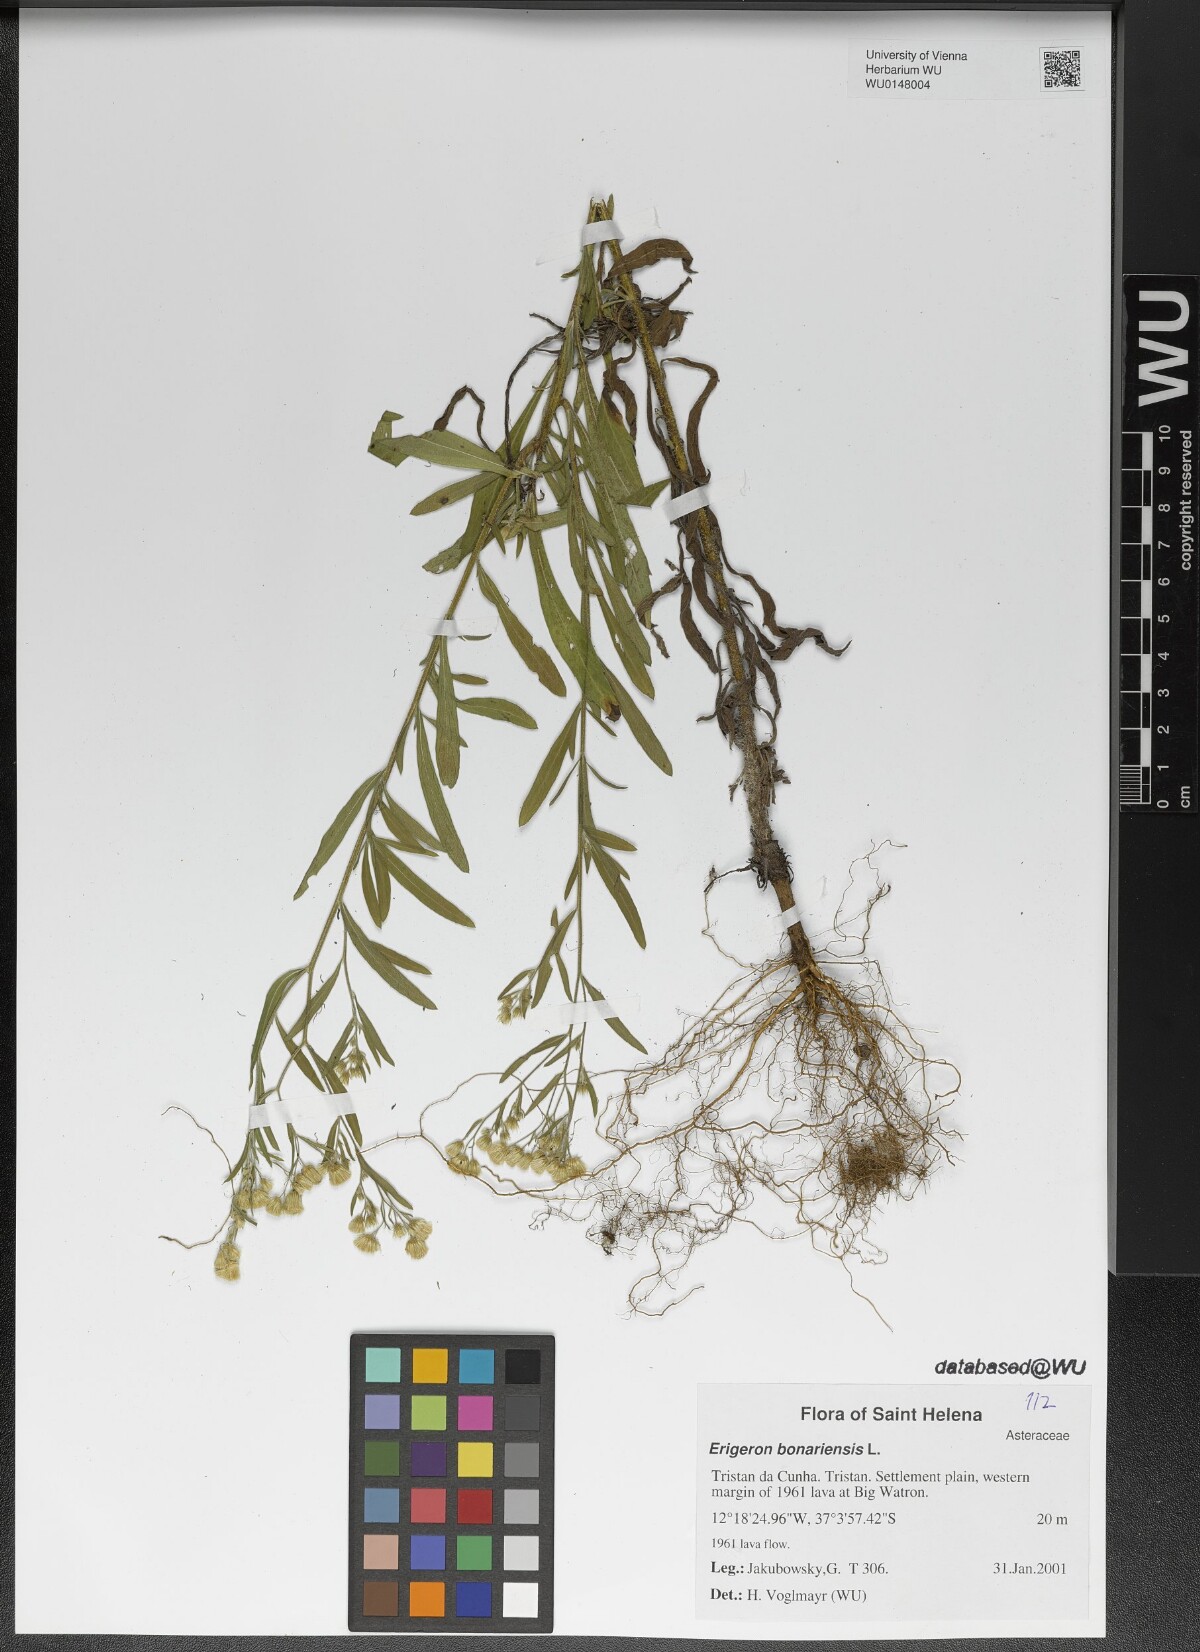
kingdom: Plantae
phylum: Tracheophyta
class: Magnoliopsida
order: Asterales
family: Asteraceae
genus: Erigeron
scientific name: Erigeron bonariensis
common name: Argentine fleabane
